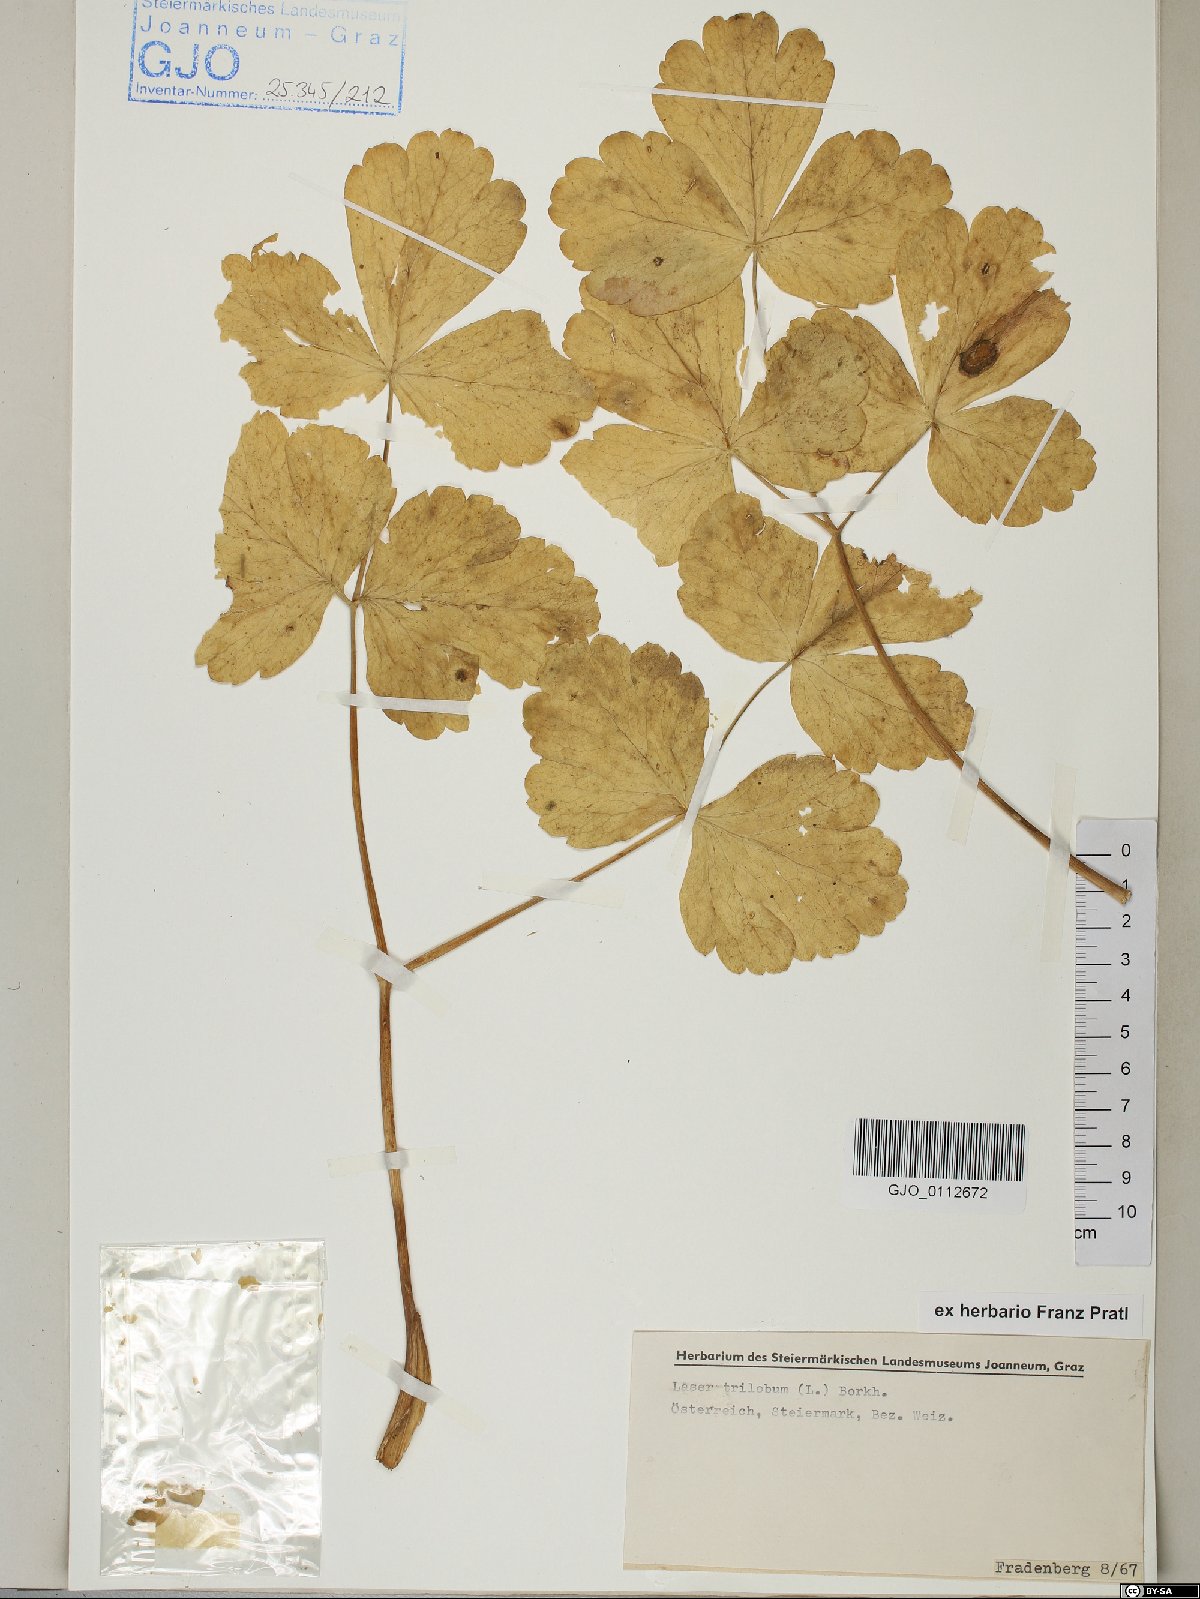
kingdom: Plantae
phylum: Tracheophyta
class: Magnoliopsida
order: Apiales
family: Apiaceae
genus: Laser
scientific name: Laser trilobum
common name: Laser
